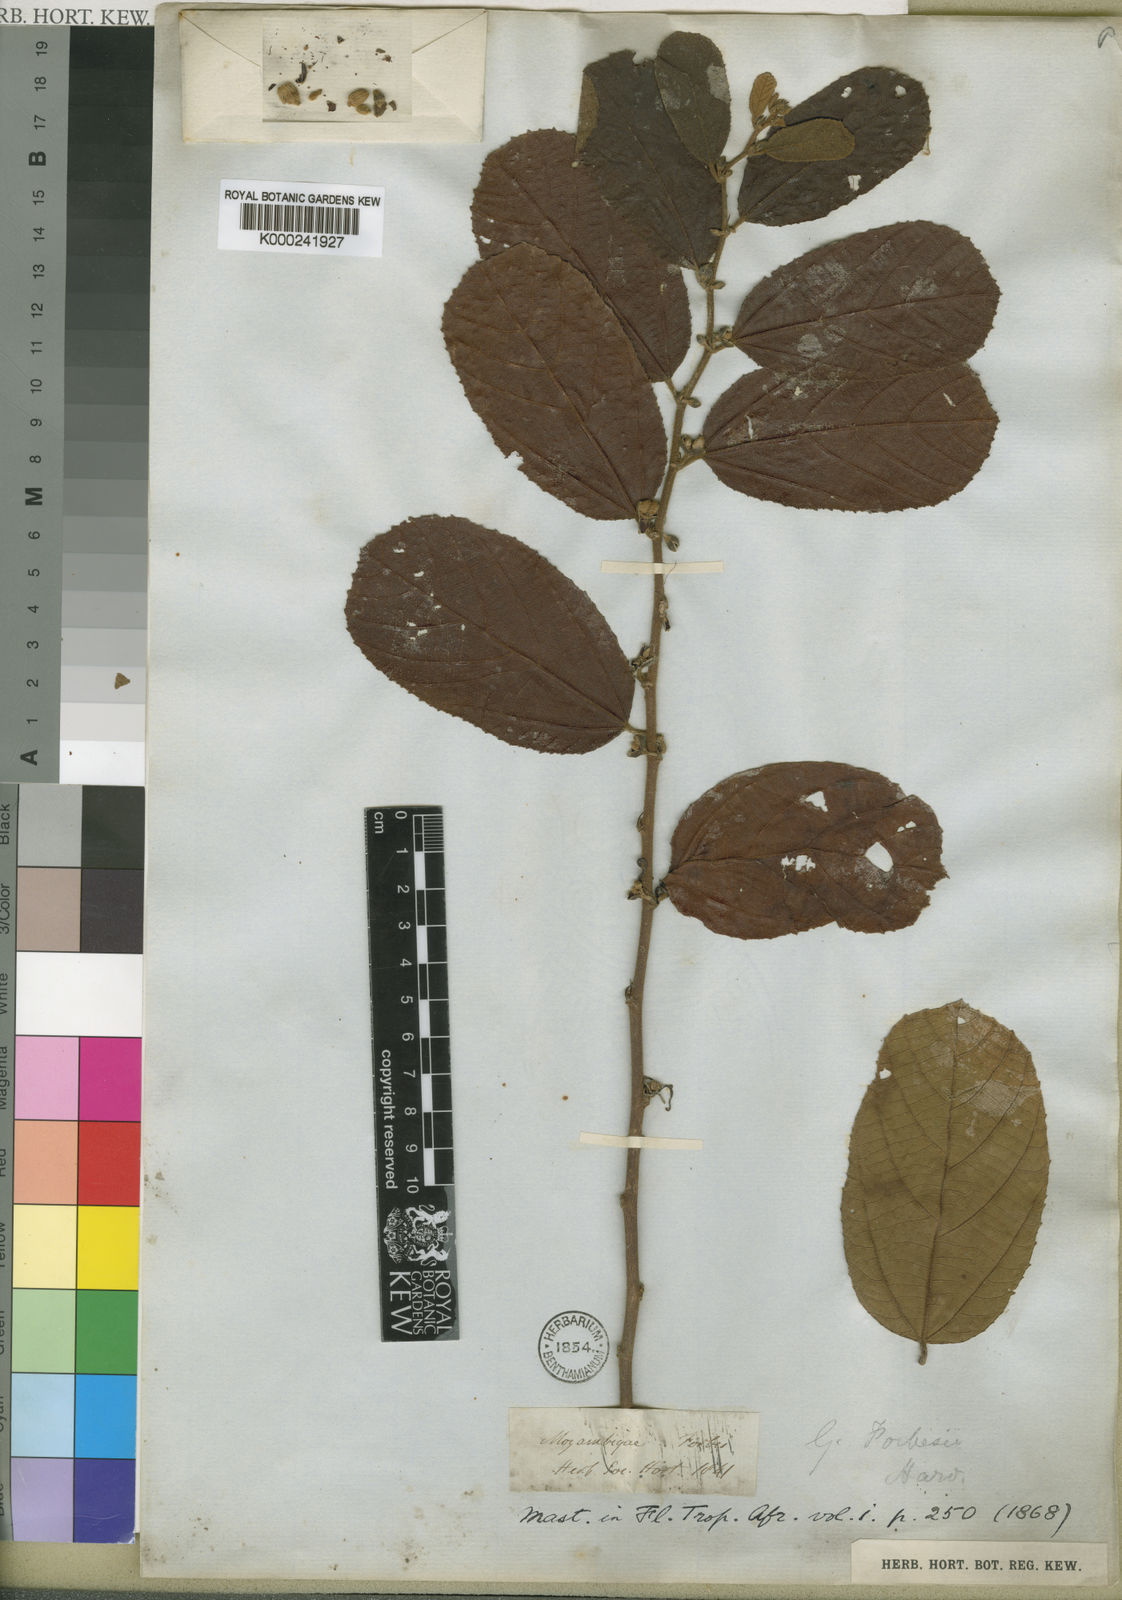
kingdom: Plantae
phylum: Tracheophyta
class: Magnoliopsida
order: Malvales
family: Malvaceae
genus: Grewia
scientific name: Grewia forbesii
